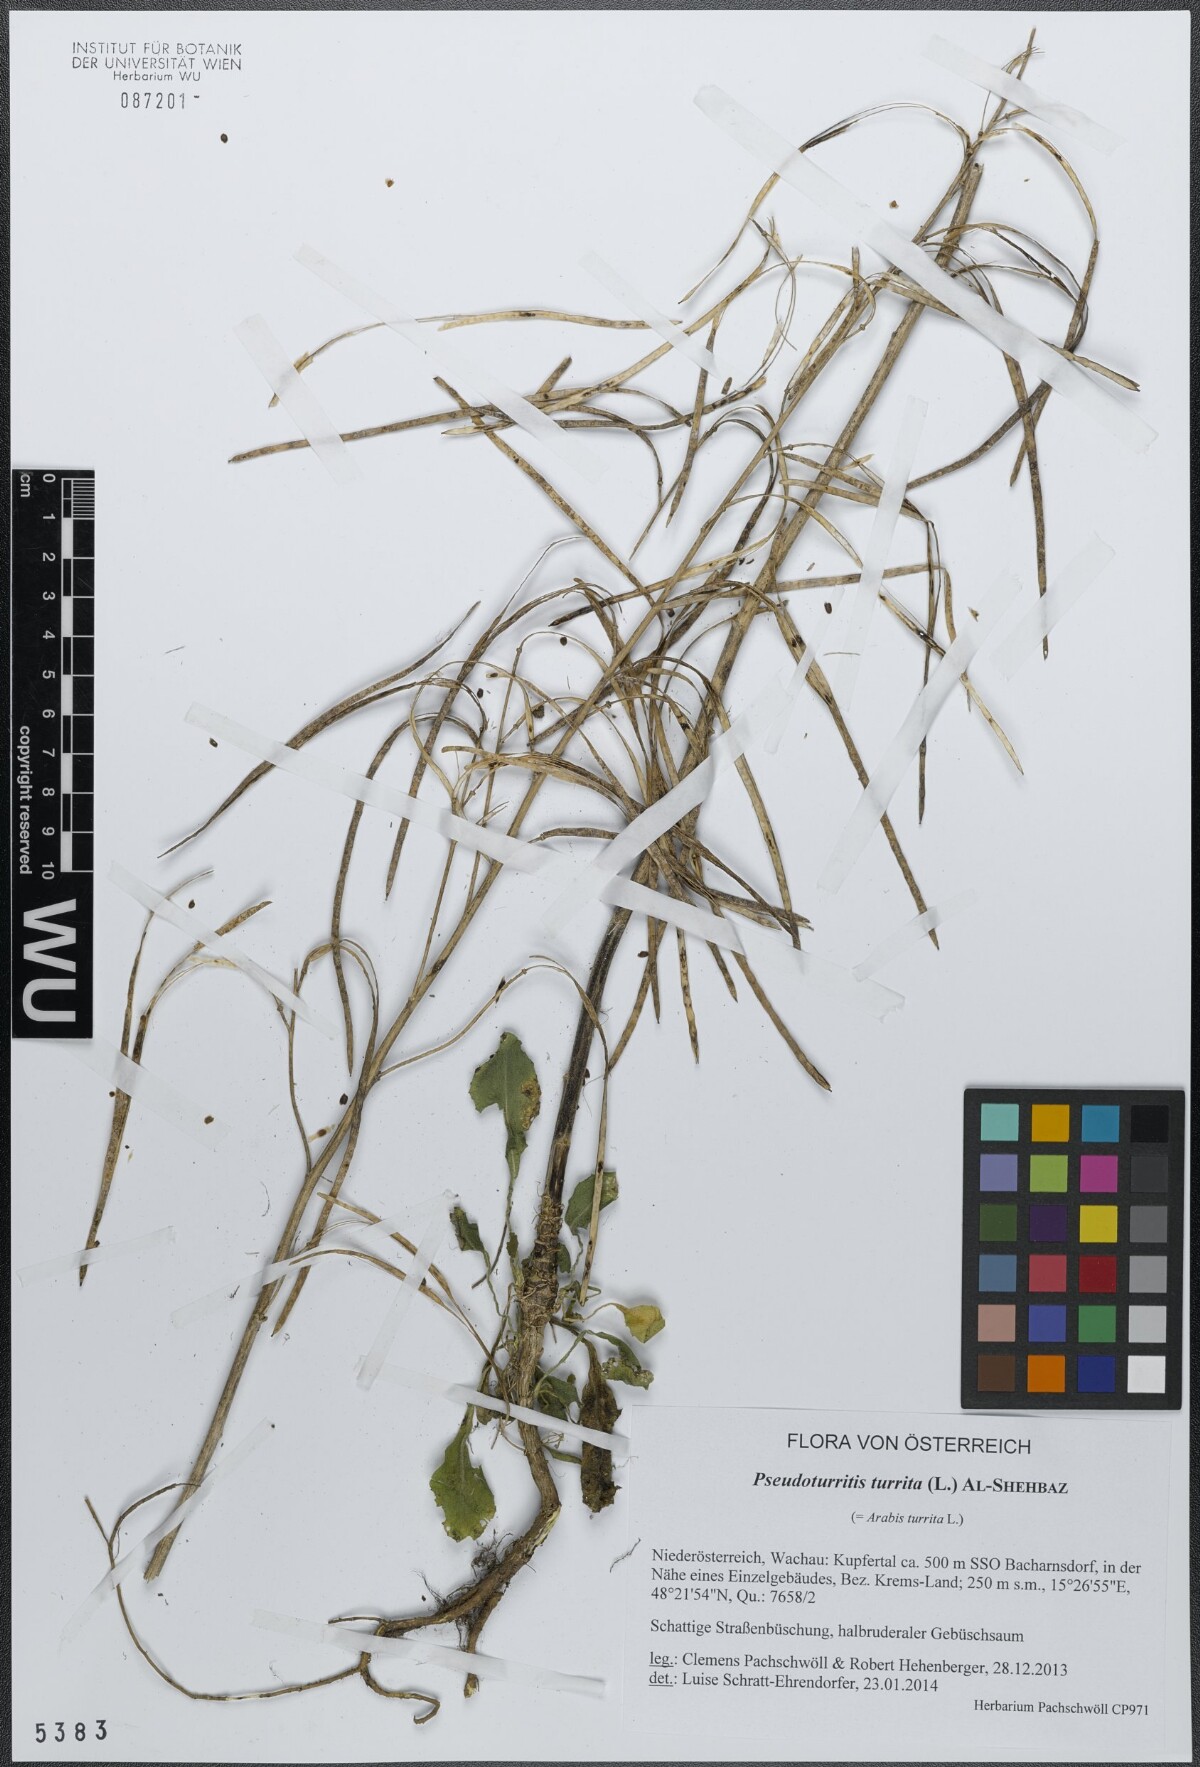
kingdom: Plantae
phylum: Tracheophyta
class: Magnoliopsida
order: Brassicales
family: Brassicaceae
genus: Pseudoturritis
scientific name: Pseudoturritis turrita
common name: Tower cress
